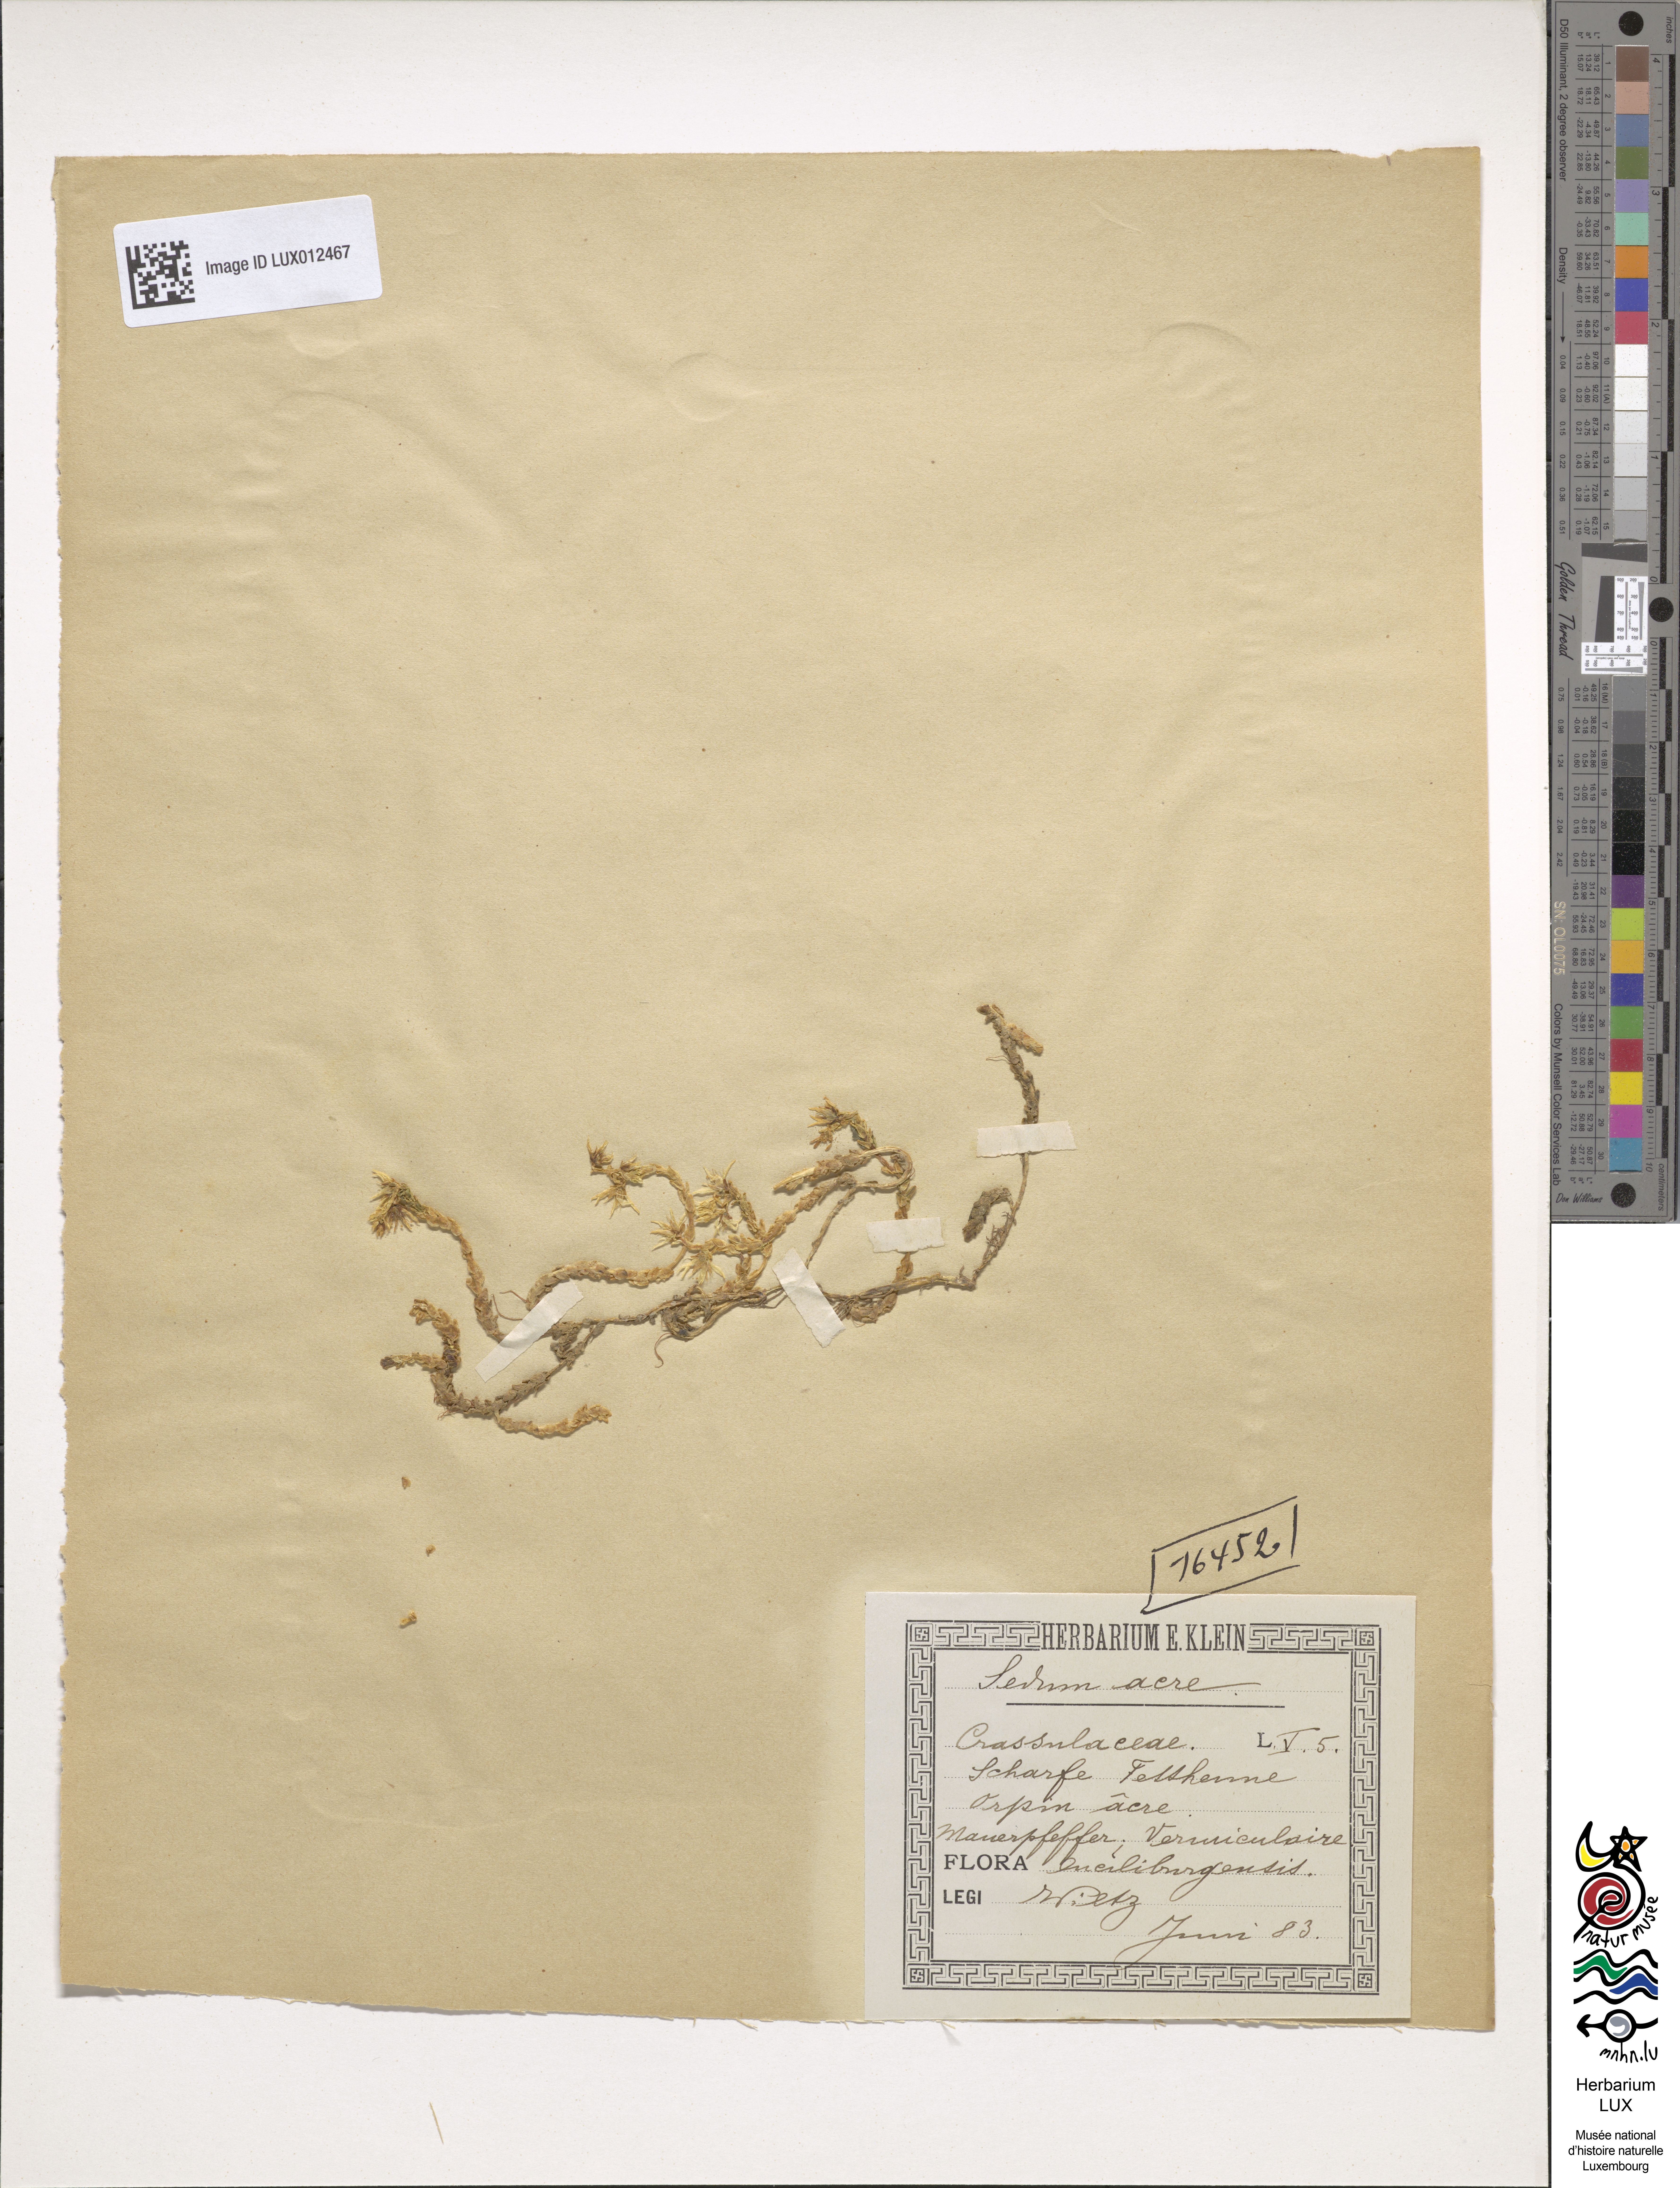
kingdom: Plantae
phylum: Tracheophyta
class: Magnoliopsida
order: Saxifragales
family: Crassulaceae
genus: Sedum
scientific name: Sedum acre
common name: Biting stonecrop
